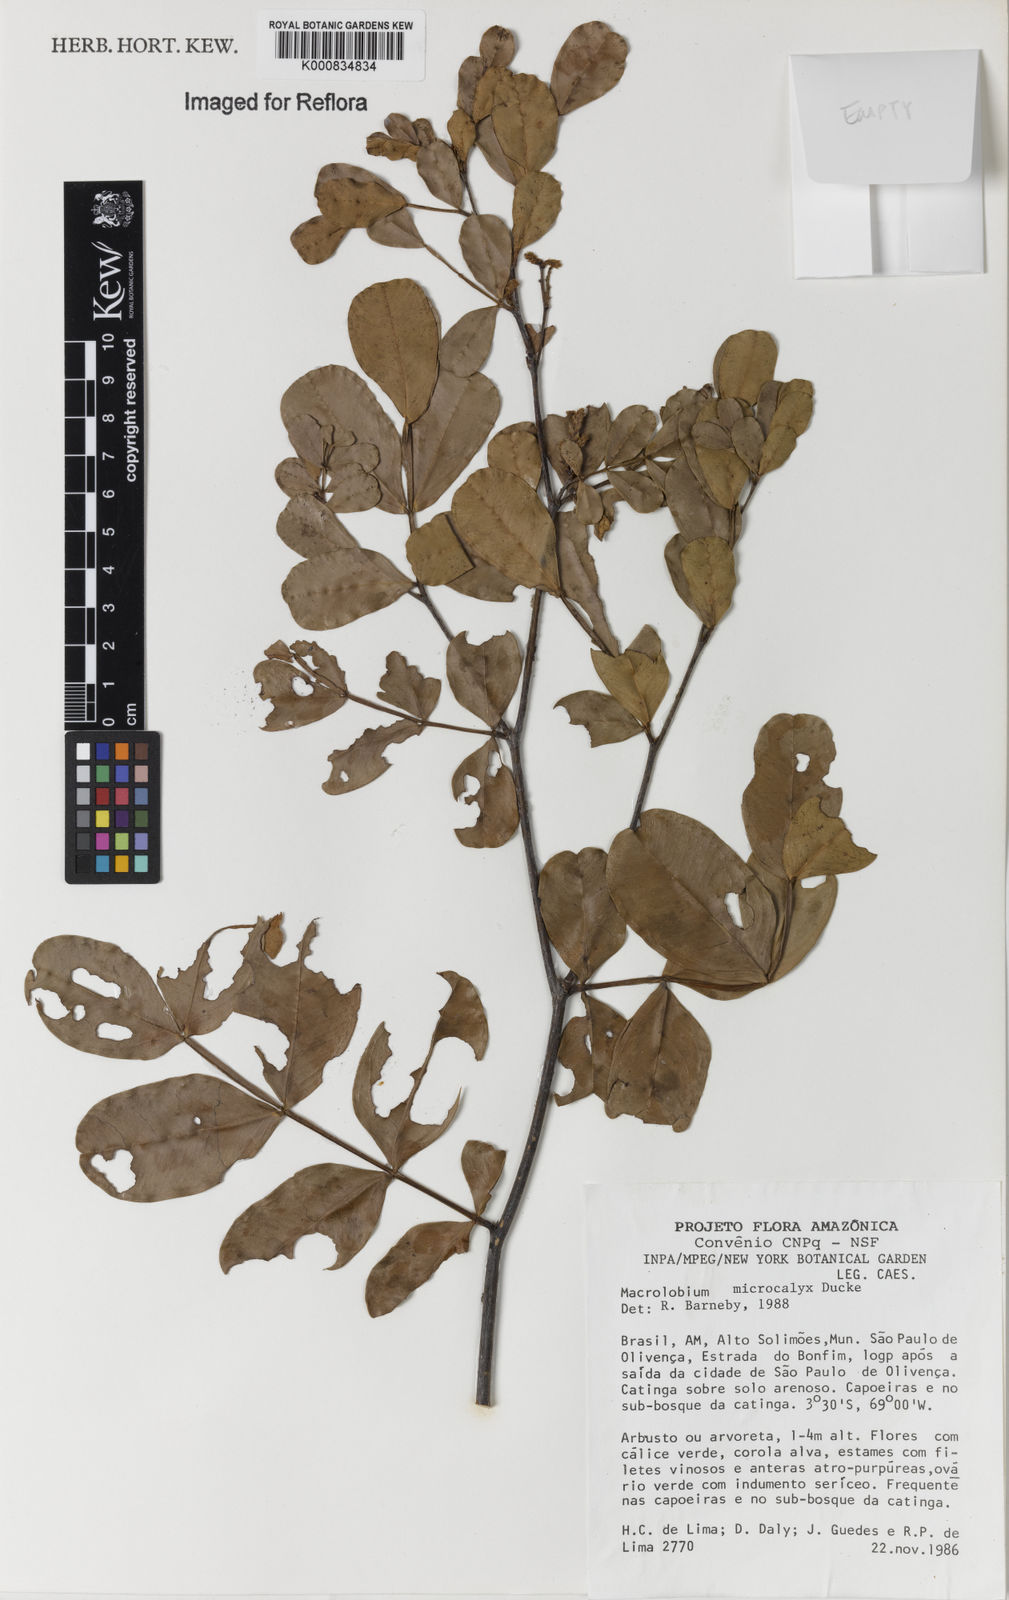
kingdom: Plantae
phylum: Tracheophyta
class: Magnoliopsida
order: Fabales
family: Fabaceae
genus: Macrolobium
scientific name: Macrolobium microcalyx
